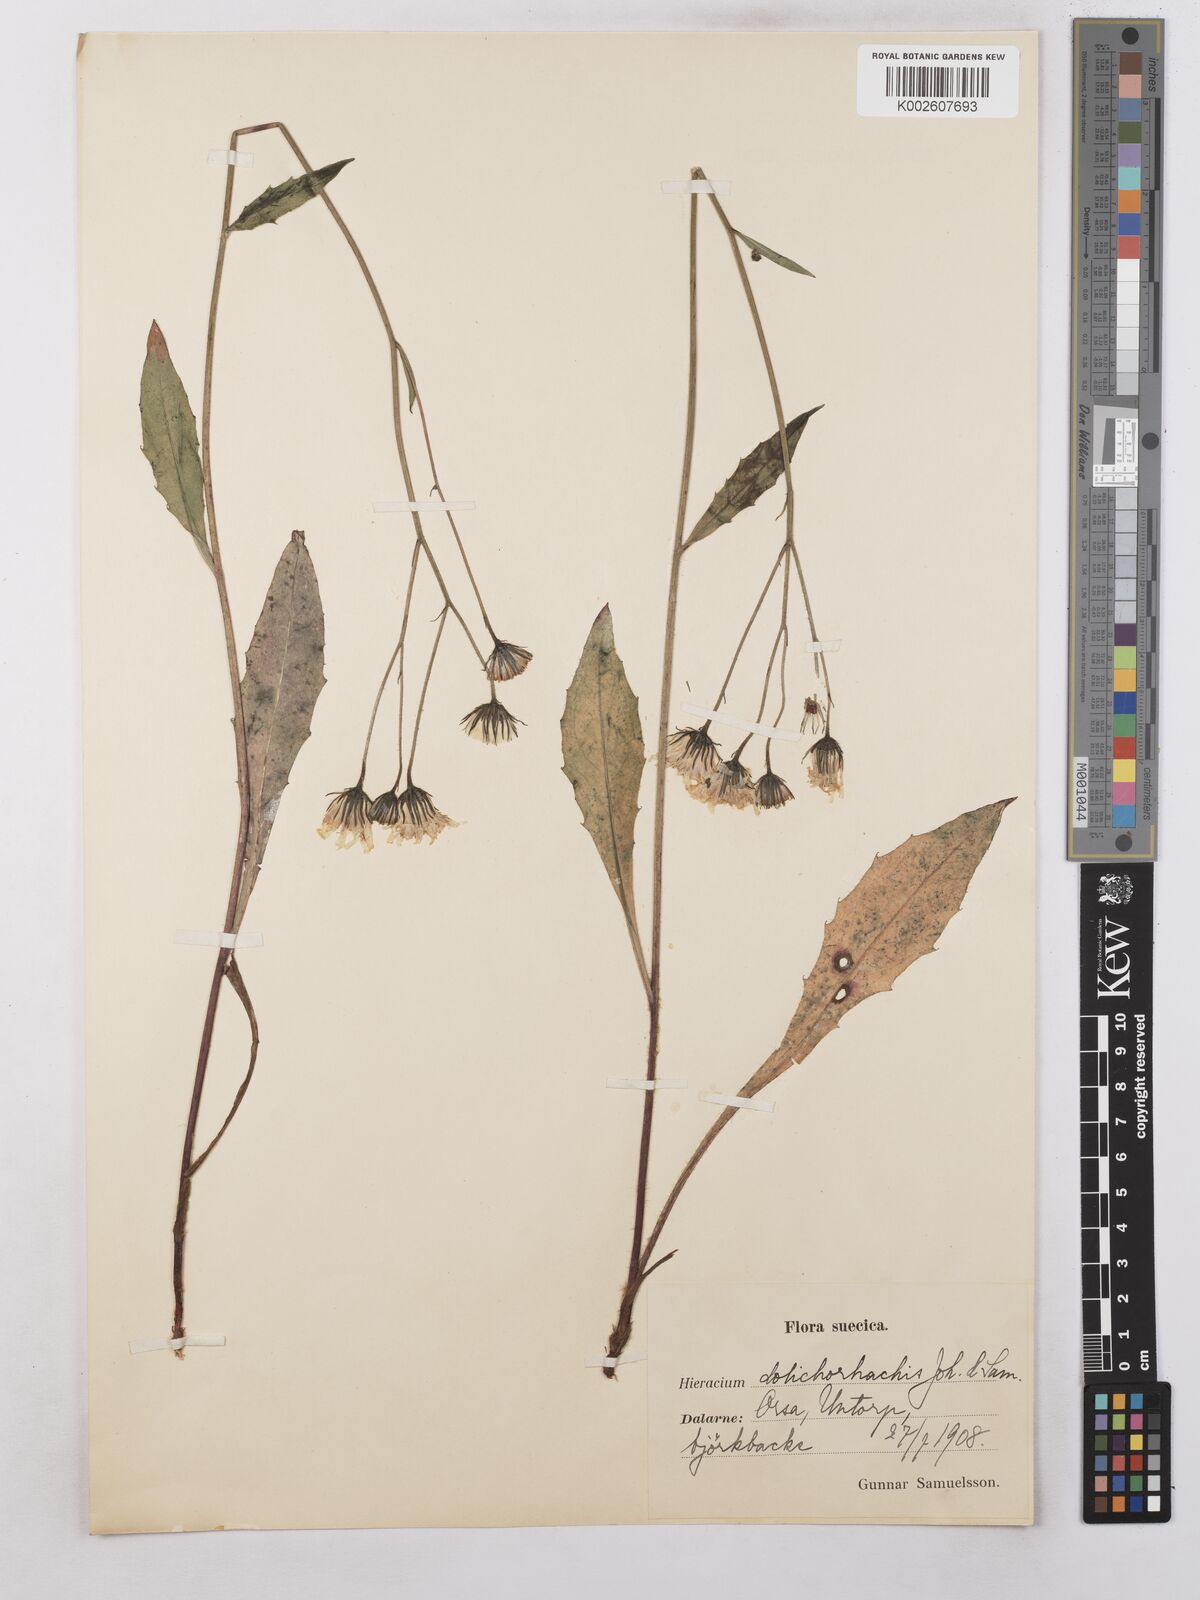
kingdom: Plantae
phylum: Tracheophyta
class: Magnoliopsida
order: Asterales
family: Asteraceae
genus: Hieracium
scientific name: Hieracium subramosum
